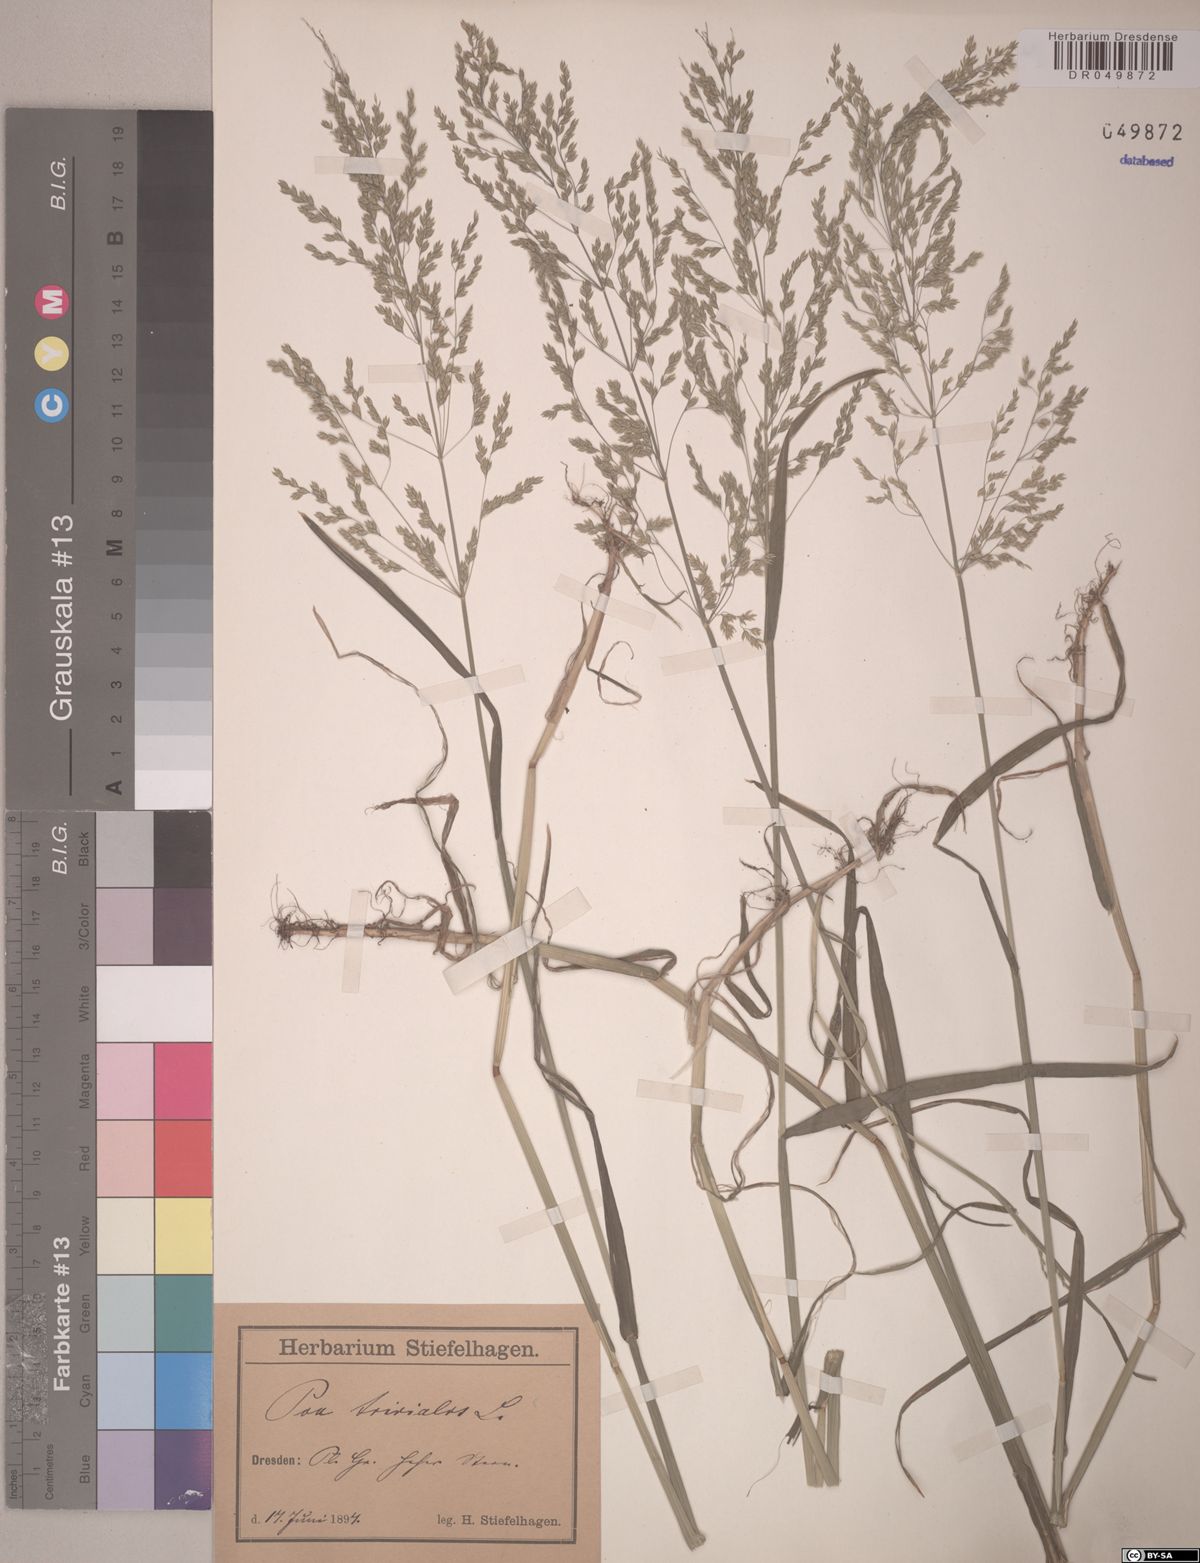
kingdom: Plantae
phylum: Tracheophyta
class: Liliopsida
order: Poales
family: Poaceae
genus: Poa
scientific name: Poa trivialis
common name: Rough bluegrass
